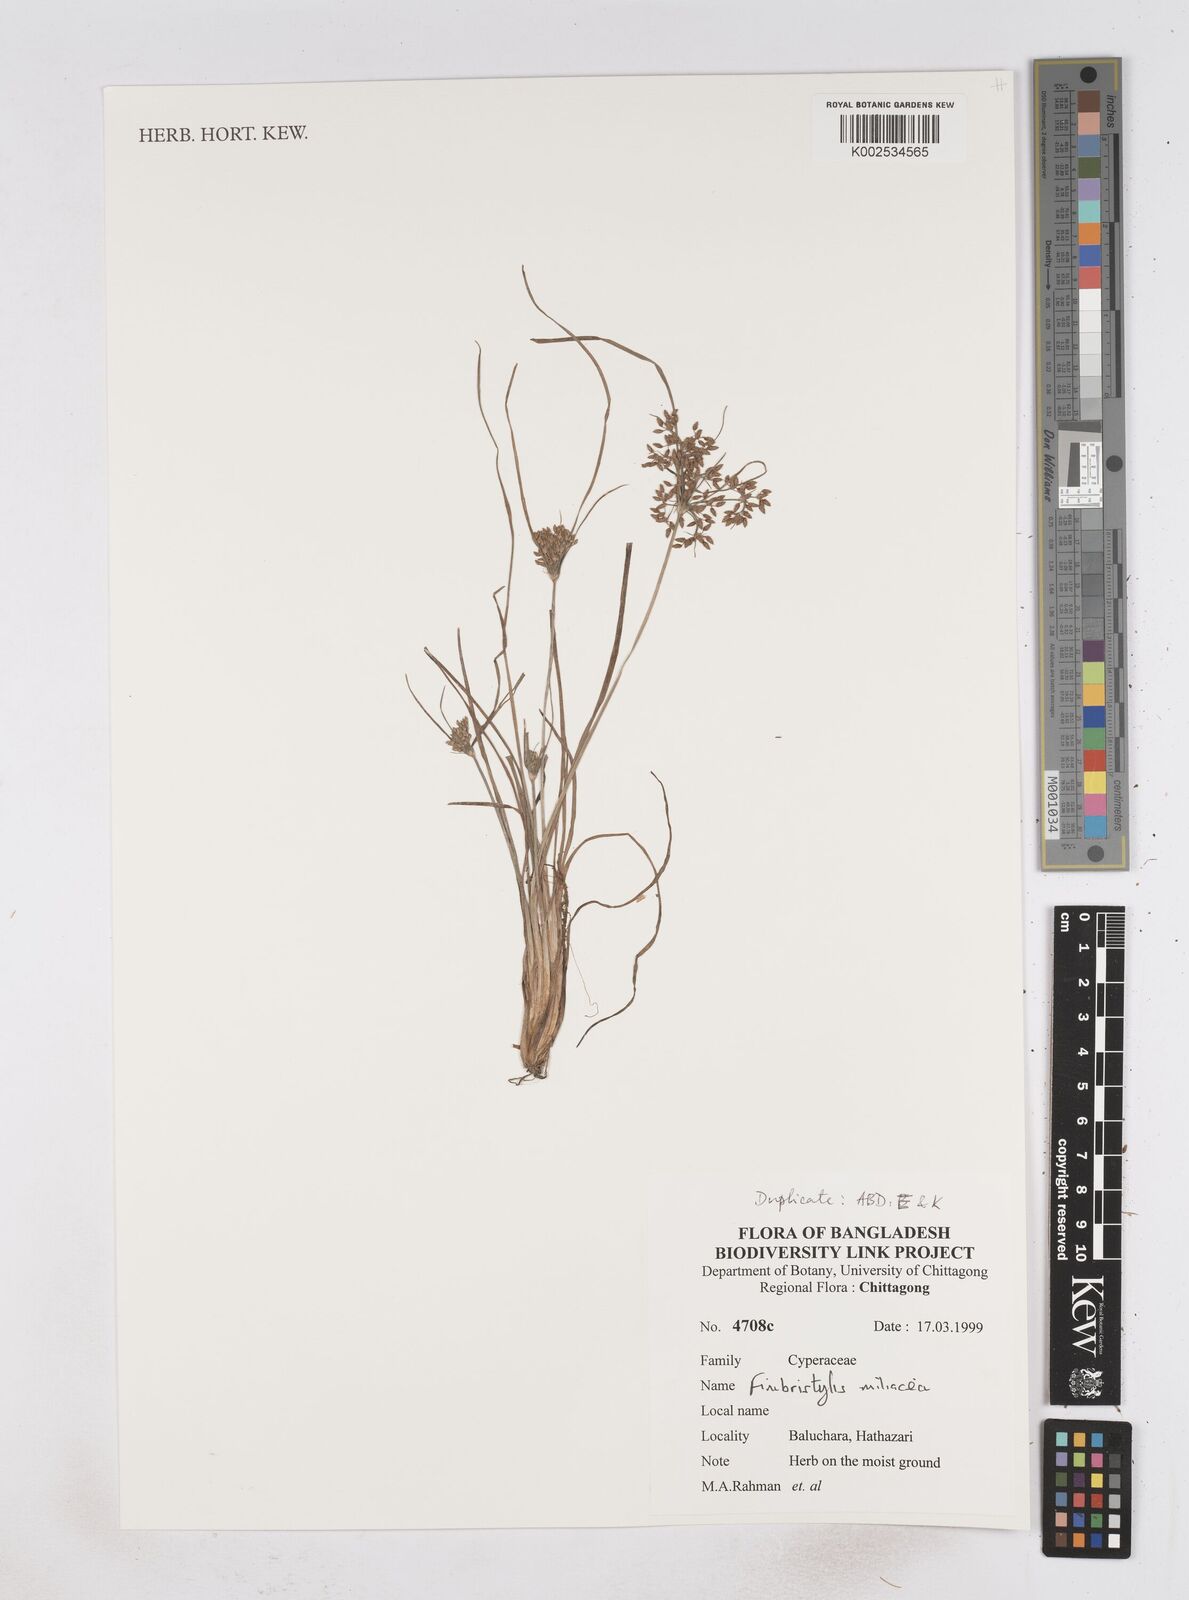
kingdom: Plantae
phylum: Tracheophyta
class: Liliopsida
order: Poales
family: Cyperaceae
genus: Fimbristylis
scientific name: Fimbristylis quinquangularis
